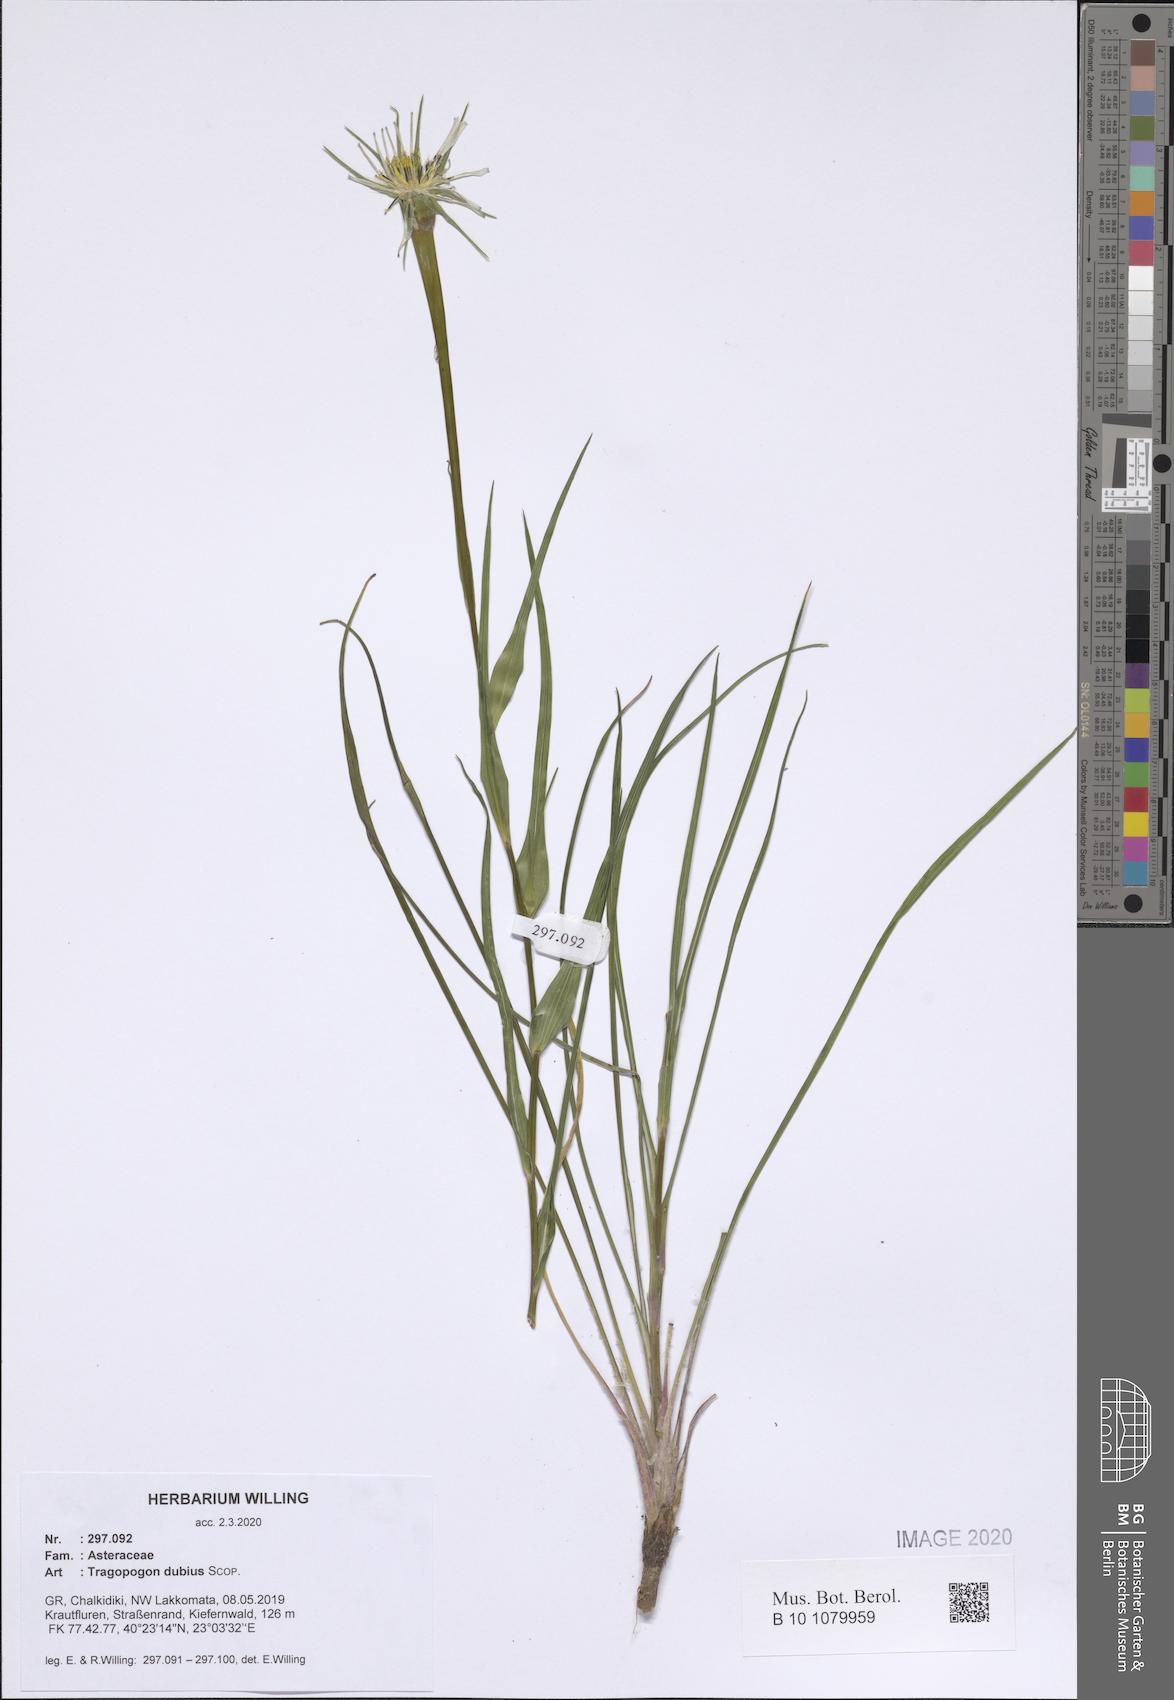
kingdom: Plantae
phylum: Tracheophyta
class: Magnoliopsida
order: Asterales
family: Asteraceae
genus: Tragopogon
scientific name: Tragopogon dubius
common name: Yellow salsify
